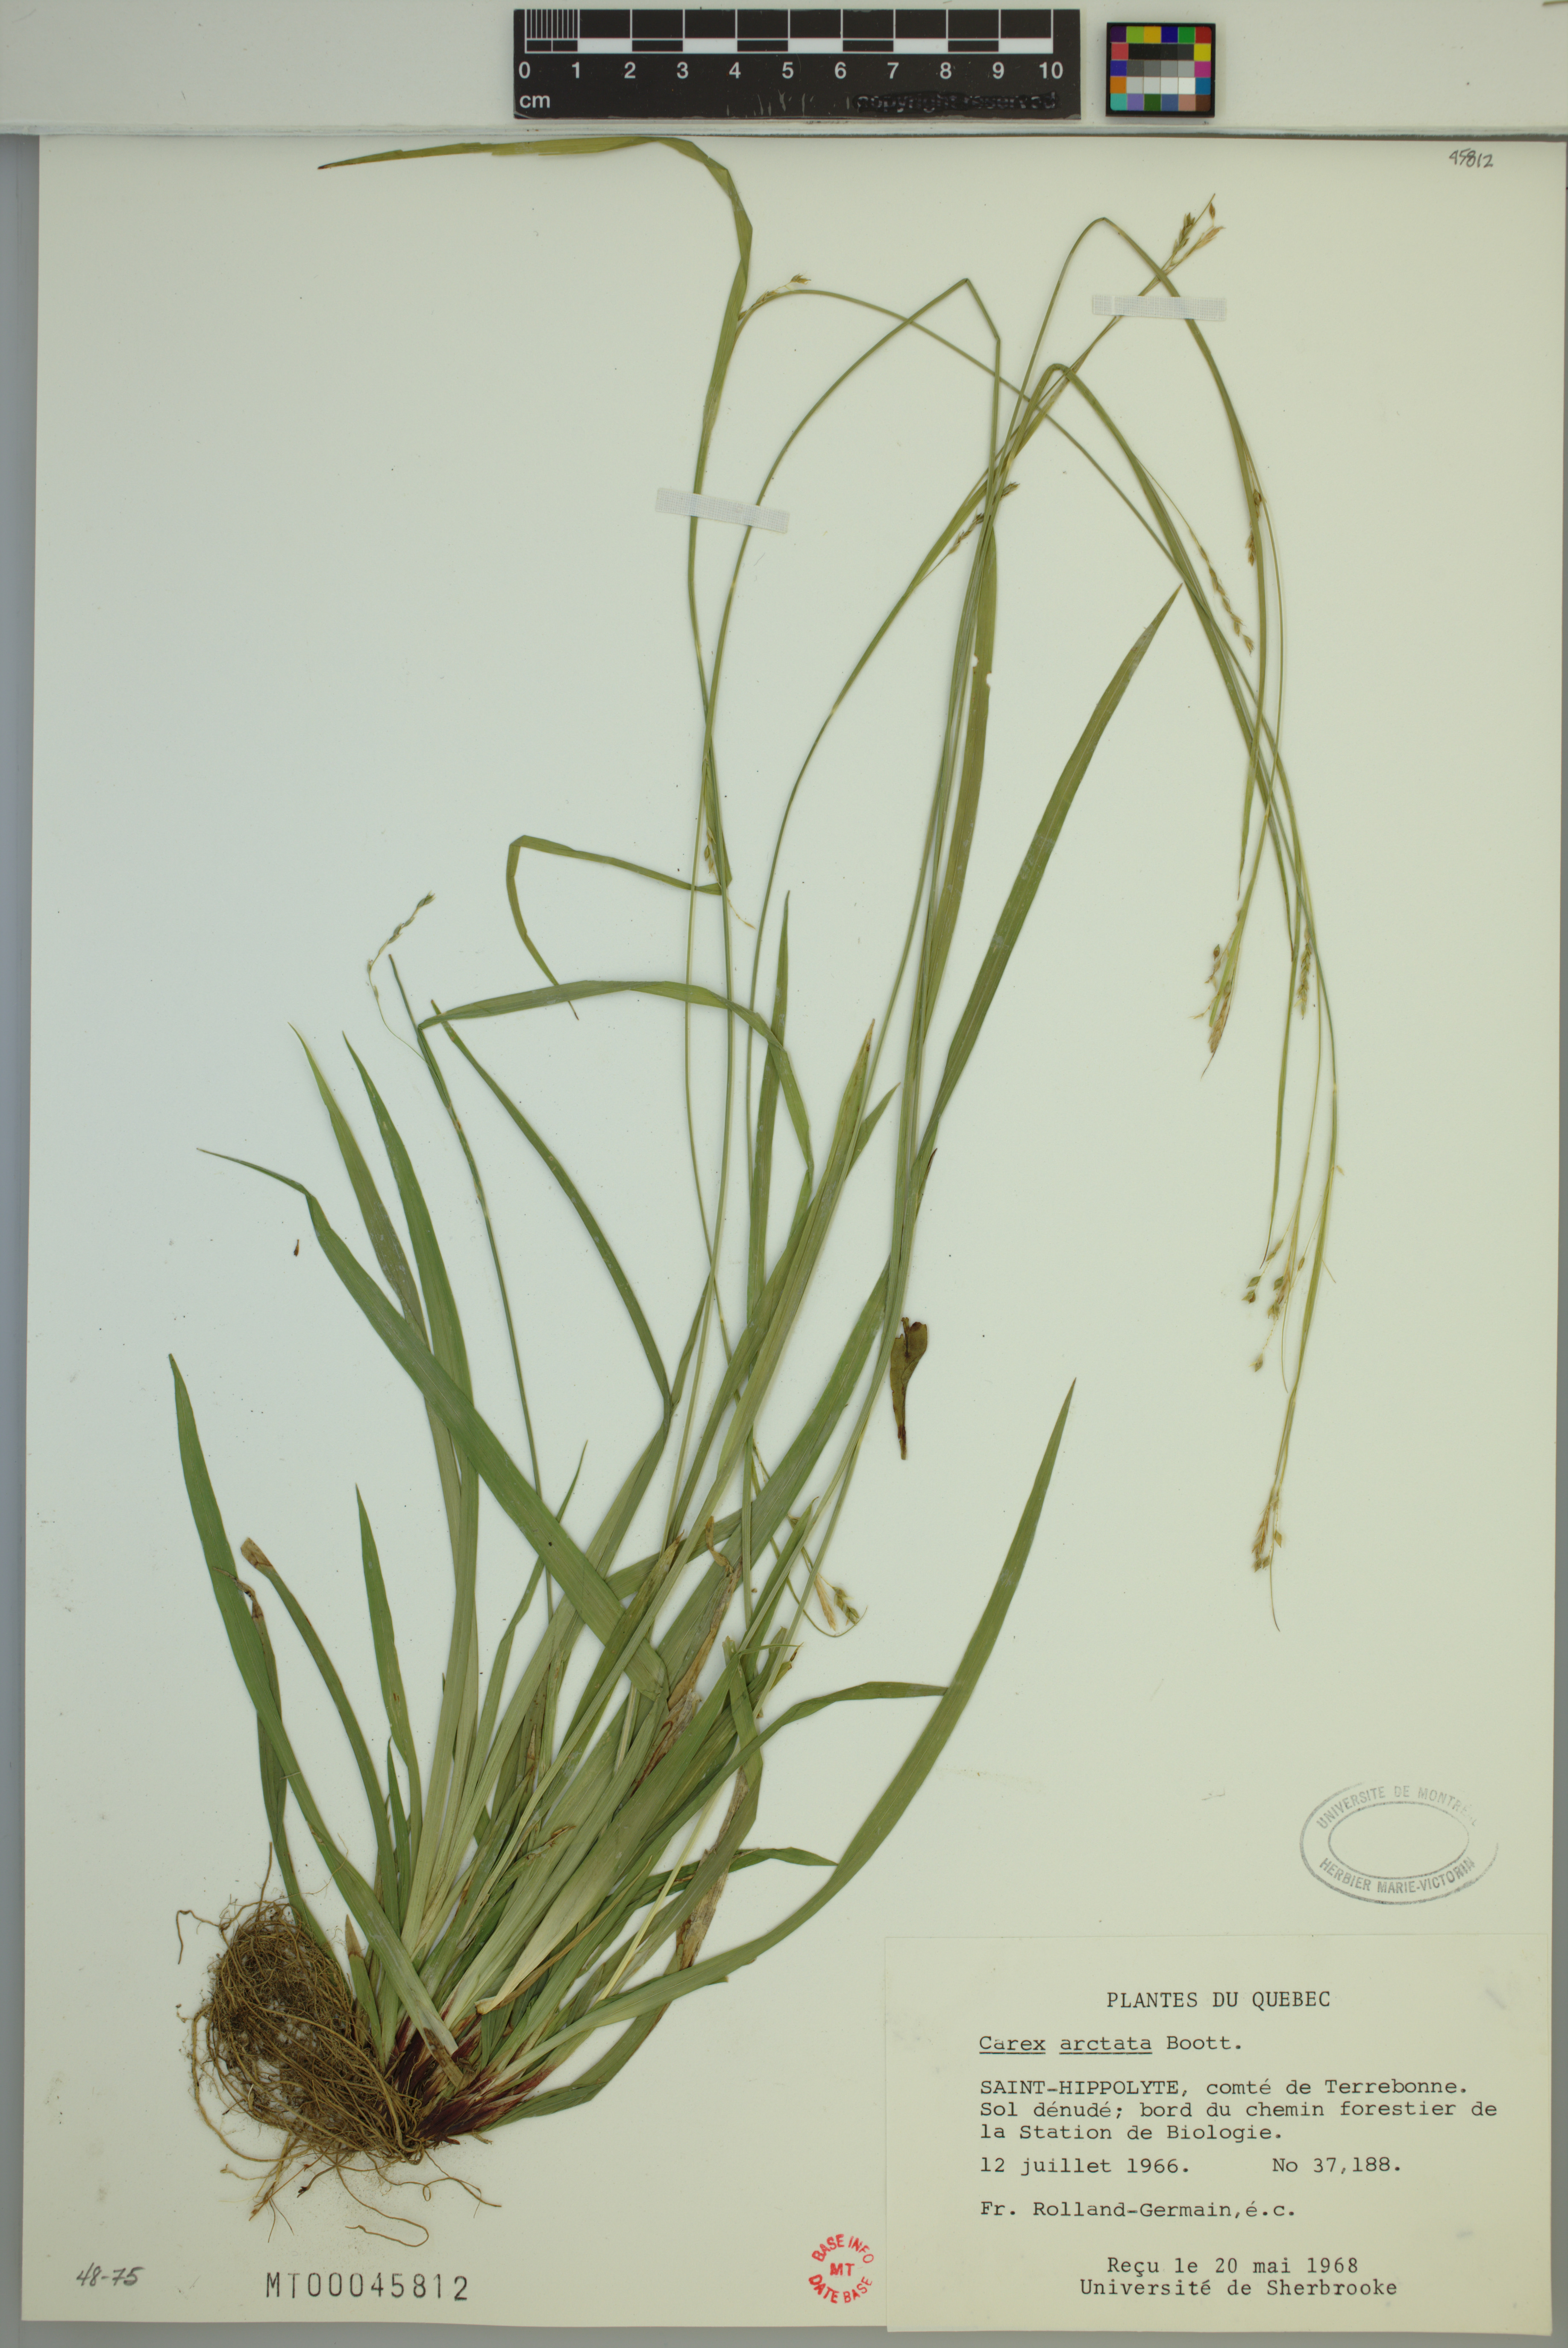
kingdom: Plantae
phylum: Tracheophyta
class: Liliopsida
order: Poales
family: Cyperaceae
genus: Carex
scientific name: Carex arctata
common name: Black sedge
